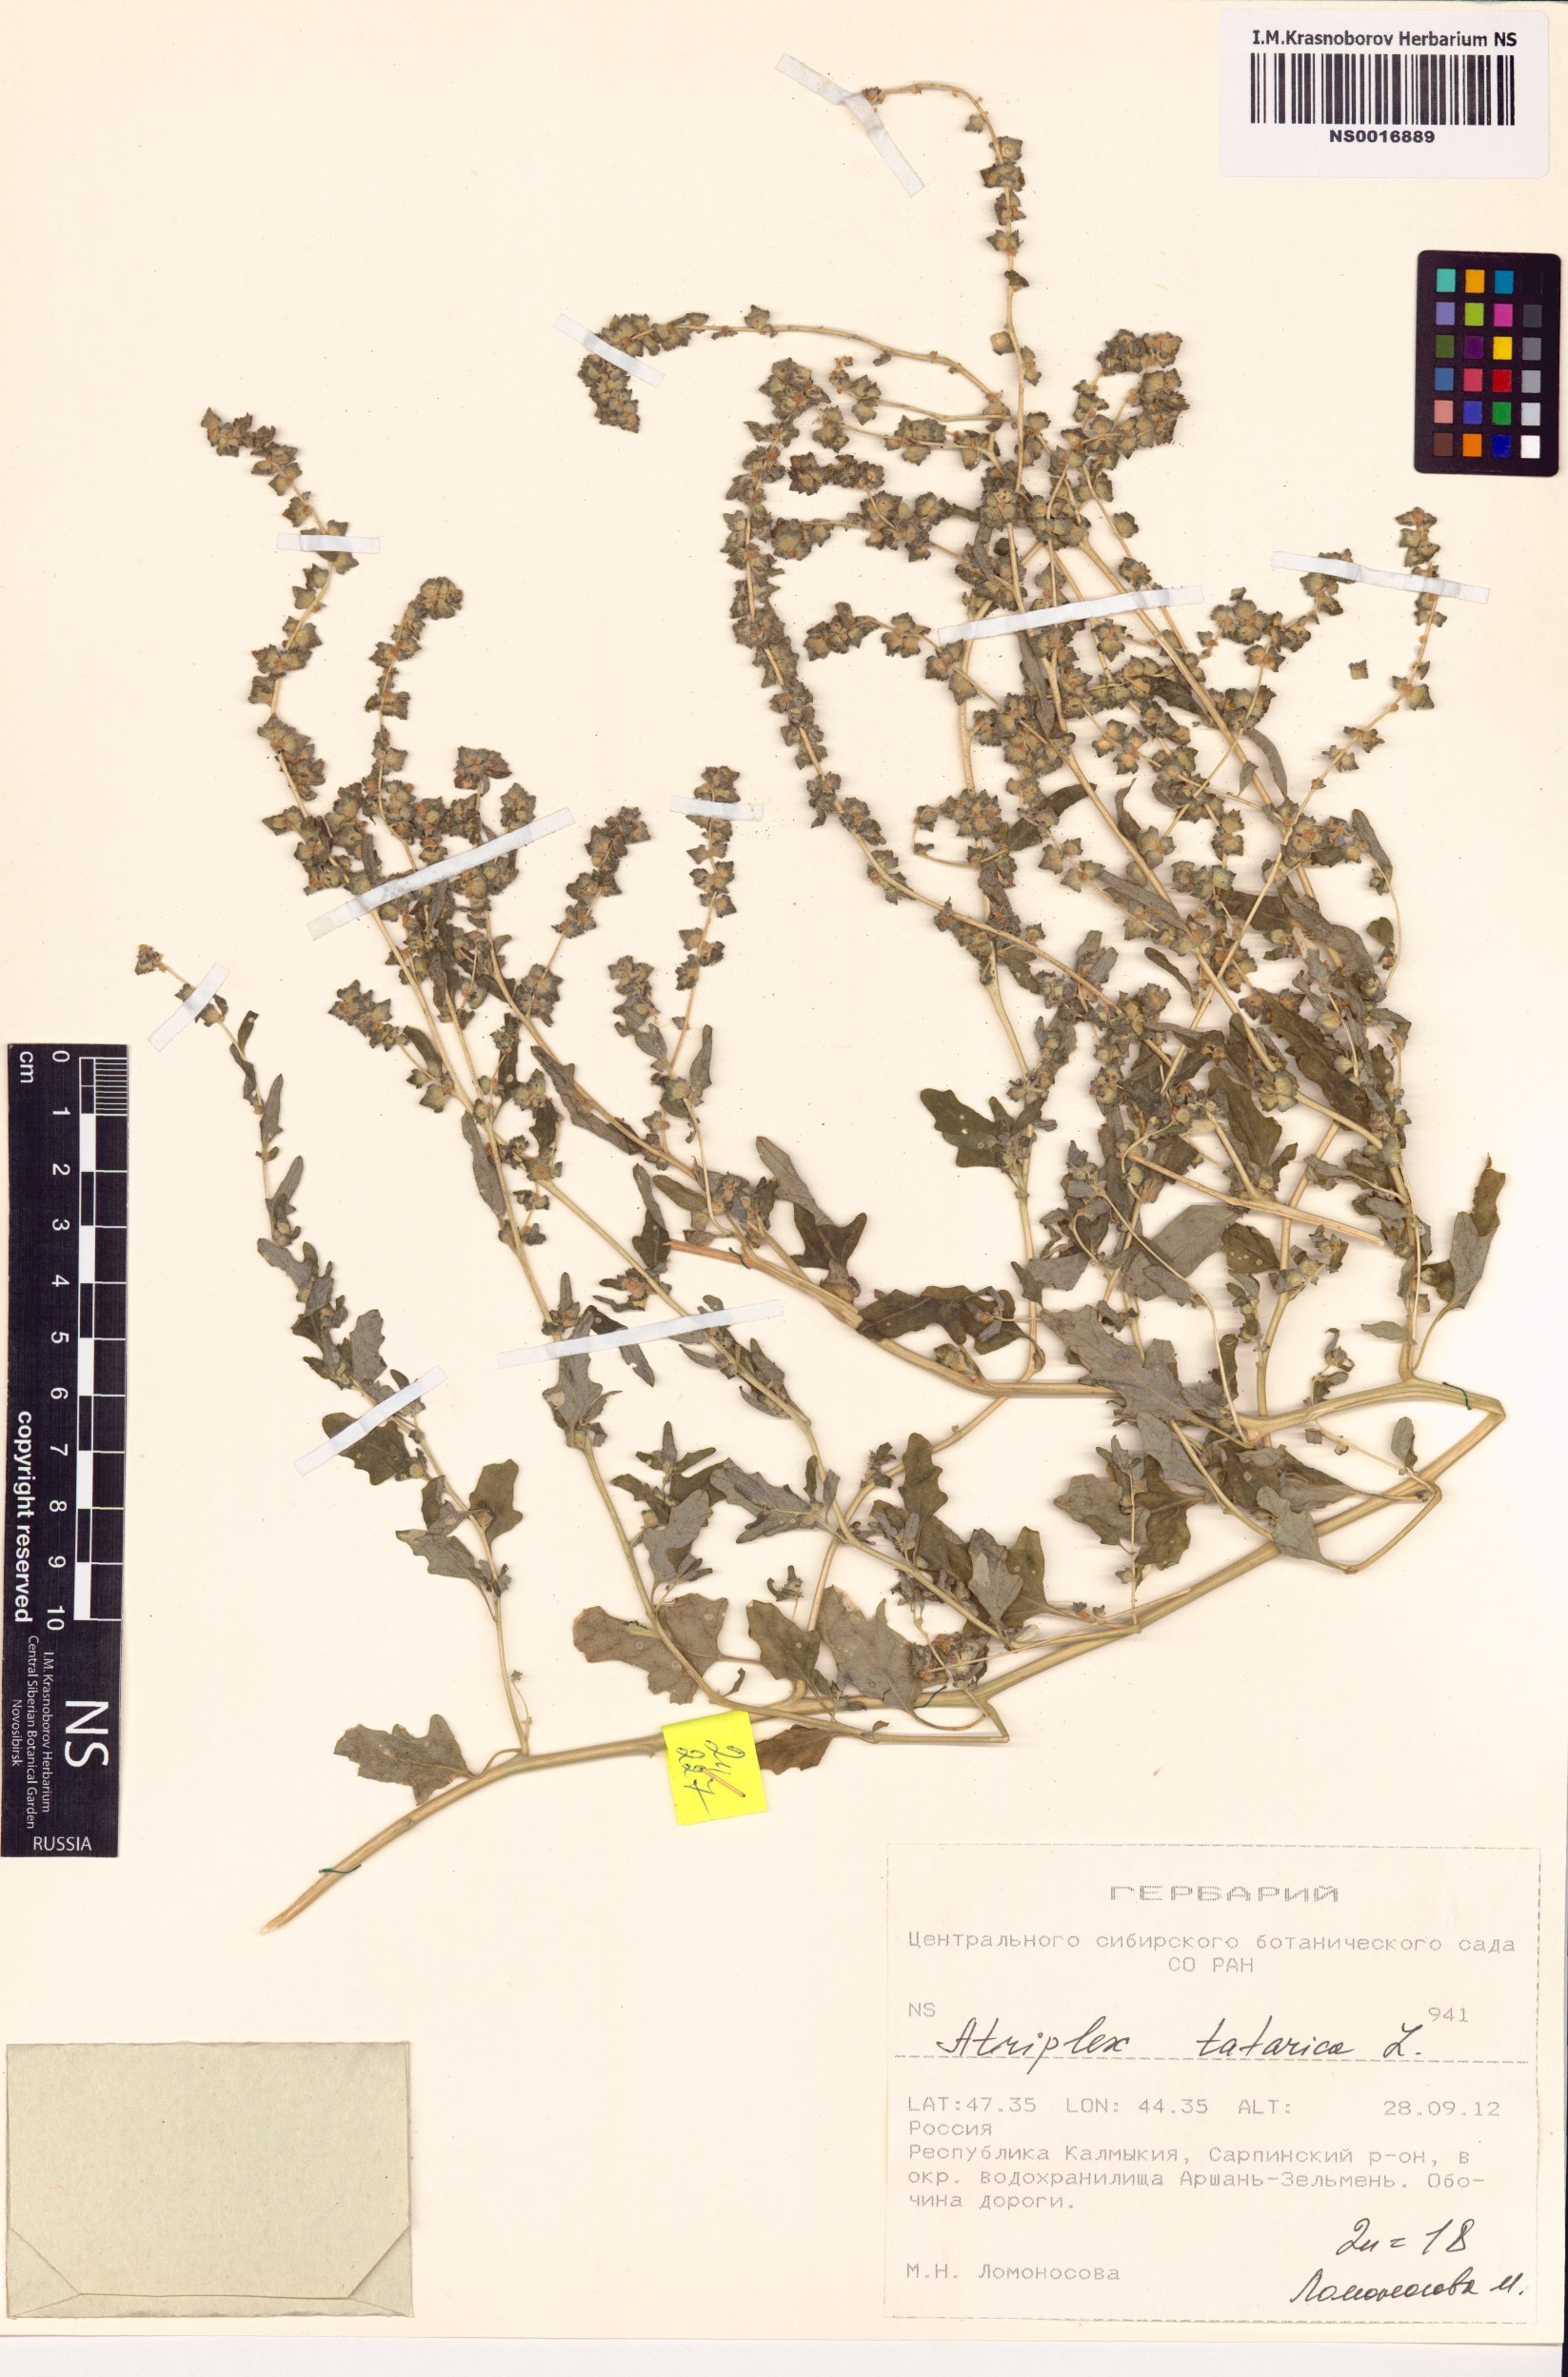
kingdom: Plantae
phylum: Tracheophyta
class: Magnoliopsida
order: Caryophyllales
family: Amaranthaceae
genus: Atriplex
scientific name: Atriplex tatarica
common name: Tatarian orache
